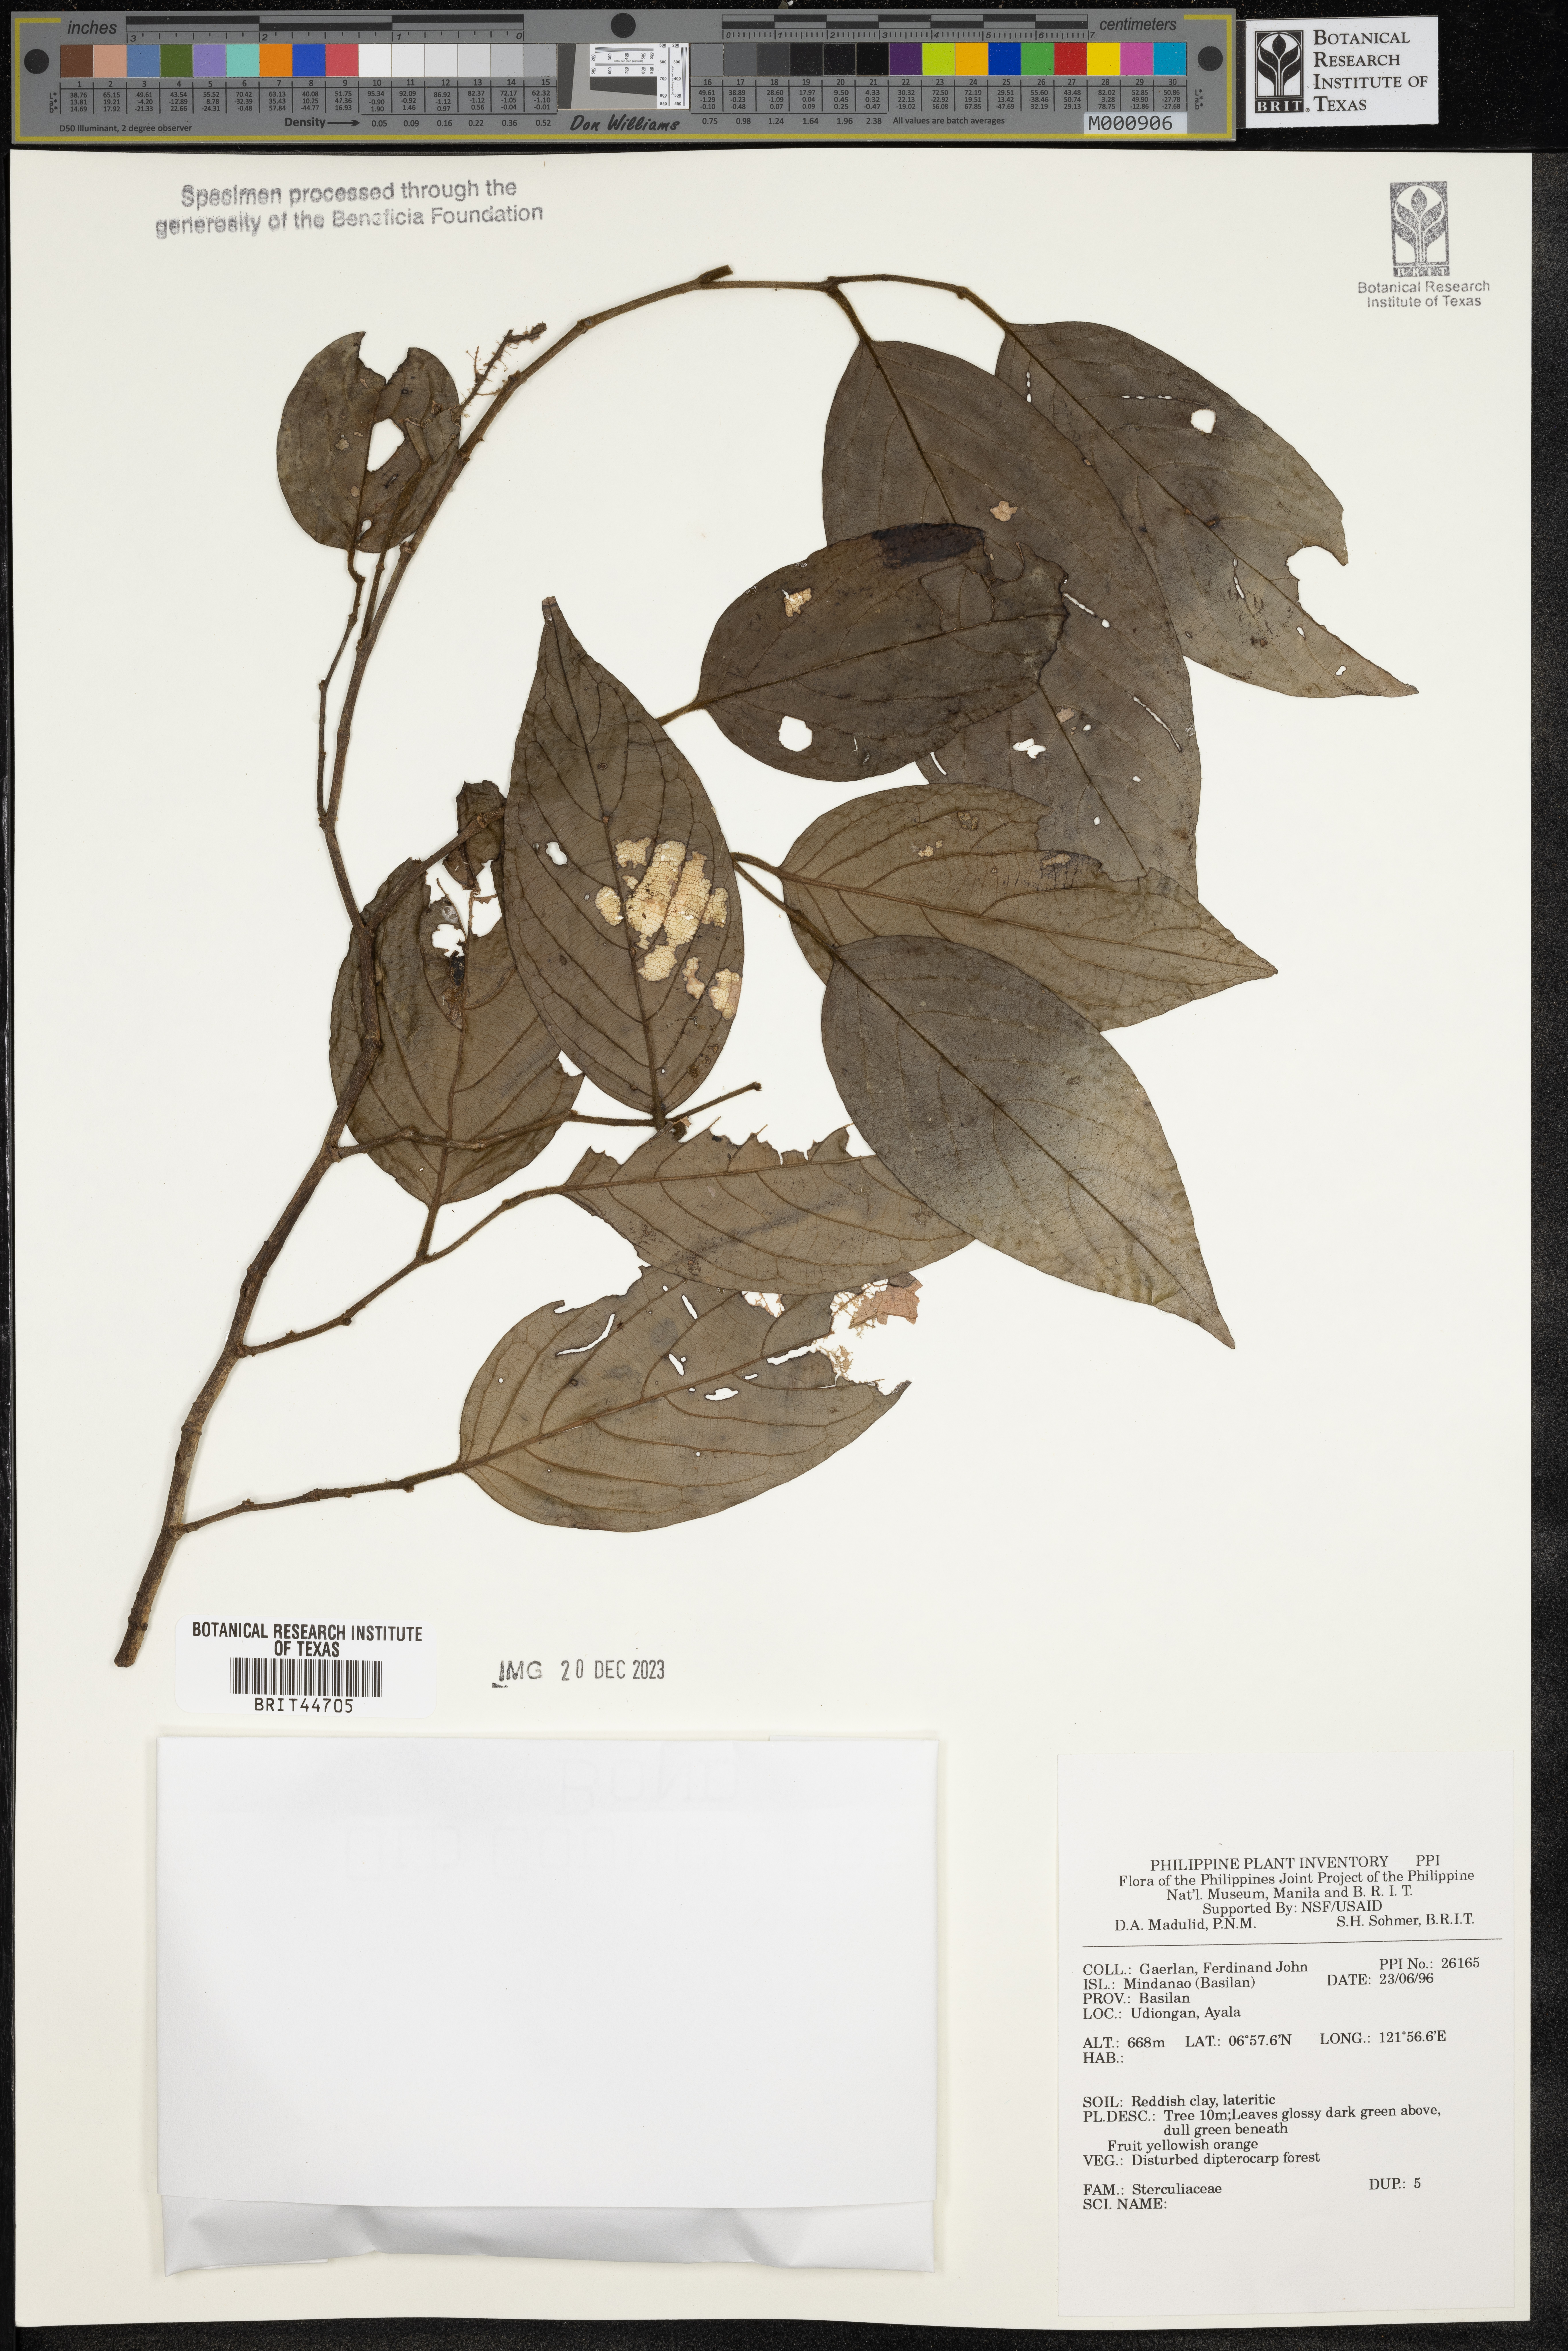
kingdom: Plantae
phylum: Tracheophyta
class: Magnoliopsida
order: Malvales
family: Sterculiaceae
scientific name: Sterculiaceae
